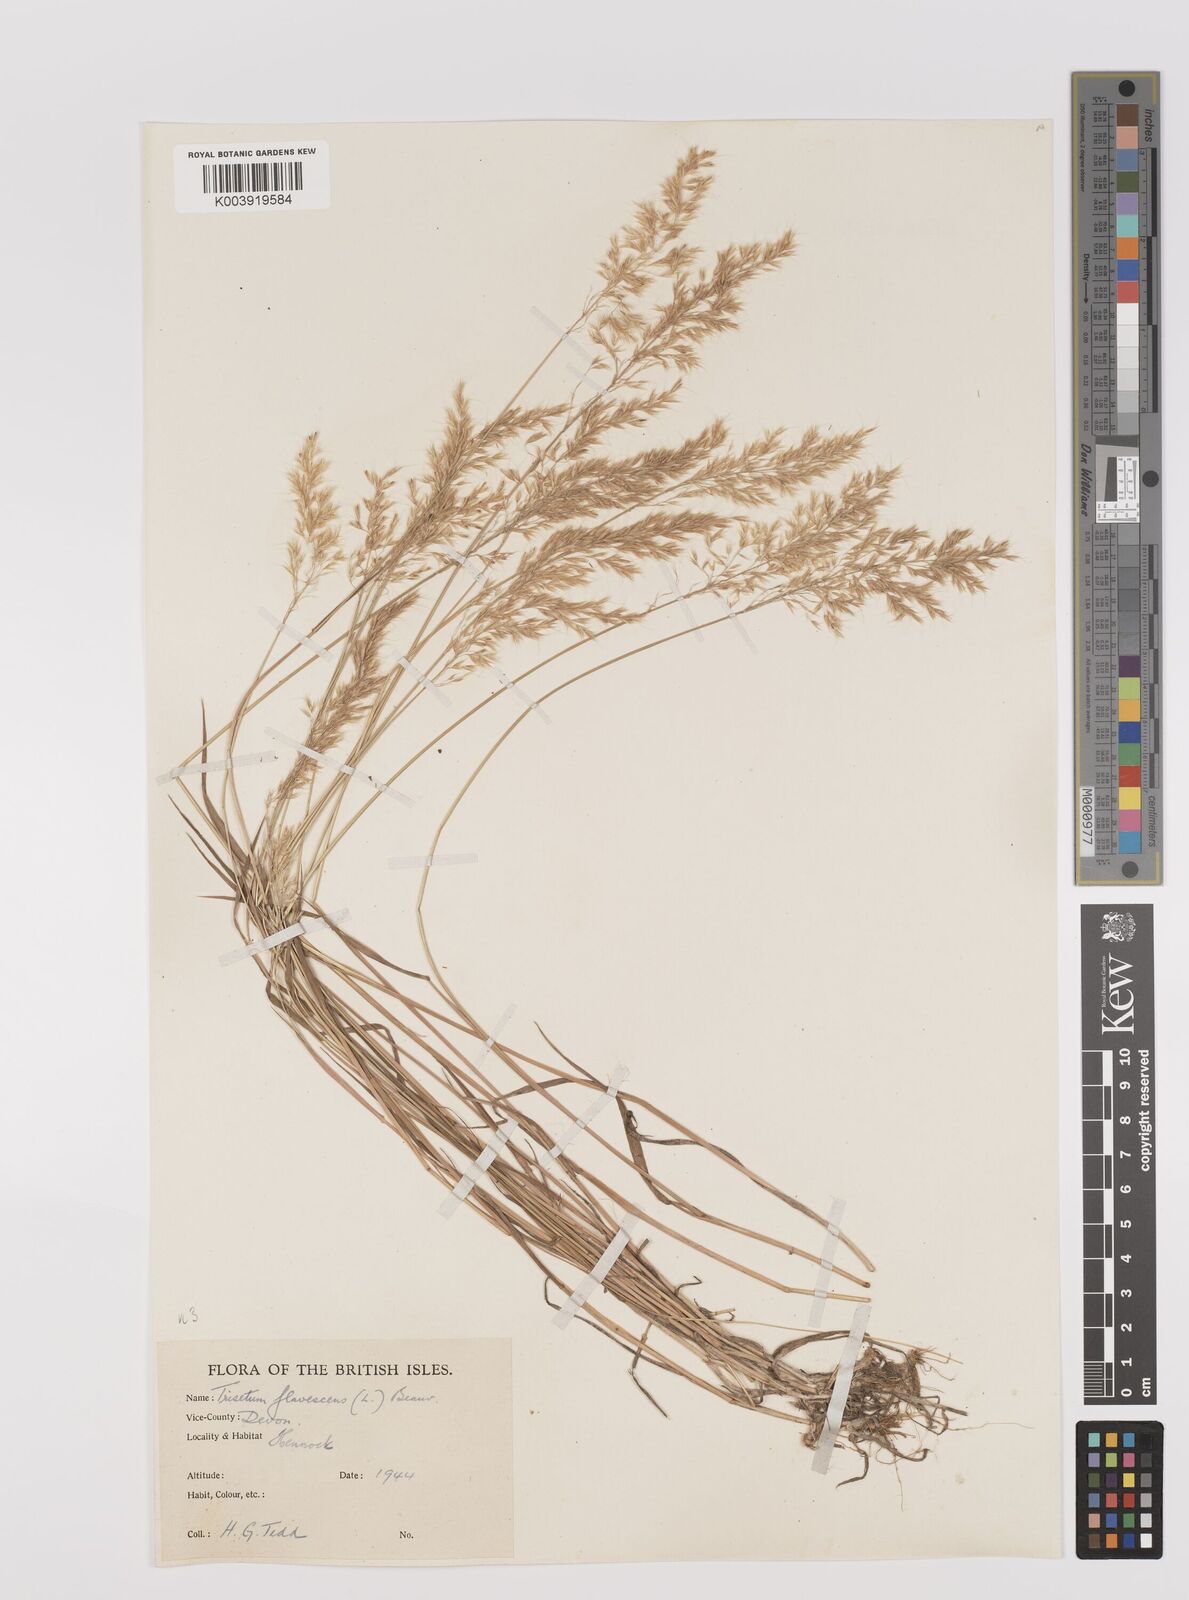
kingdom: Plantae
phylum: Tracheophyta
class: Liliopsida
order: Poales
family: Poaceae
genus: Trisetum
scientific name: Trisetum flavescens
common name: Yellow oat-grass
